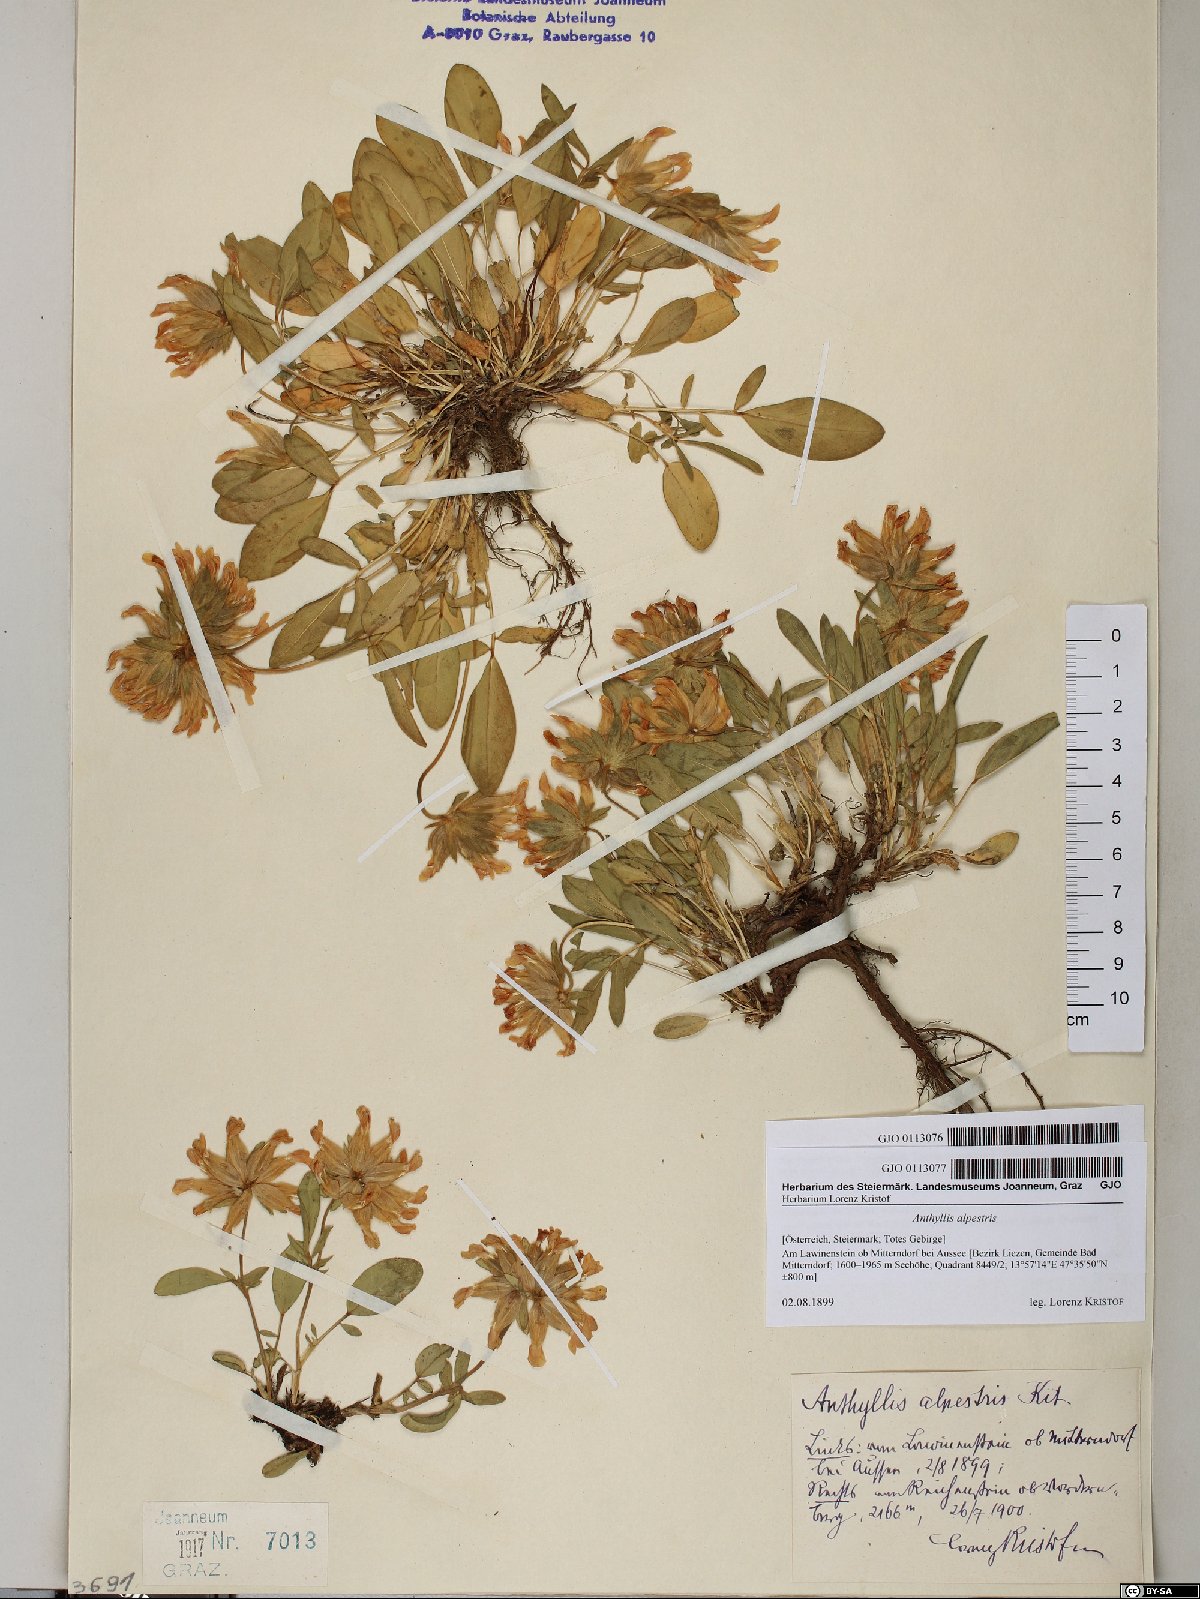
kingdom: Plantae
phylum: Tracheophyta
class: Magnoliopsida
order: Fabales
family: Fabaceae
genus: Anthyllis
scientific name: Anthyllis vulneraria
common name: Kidney vetch
